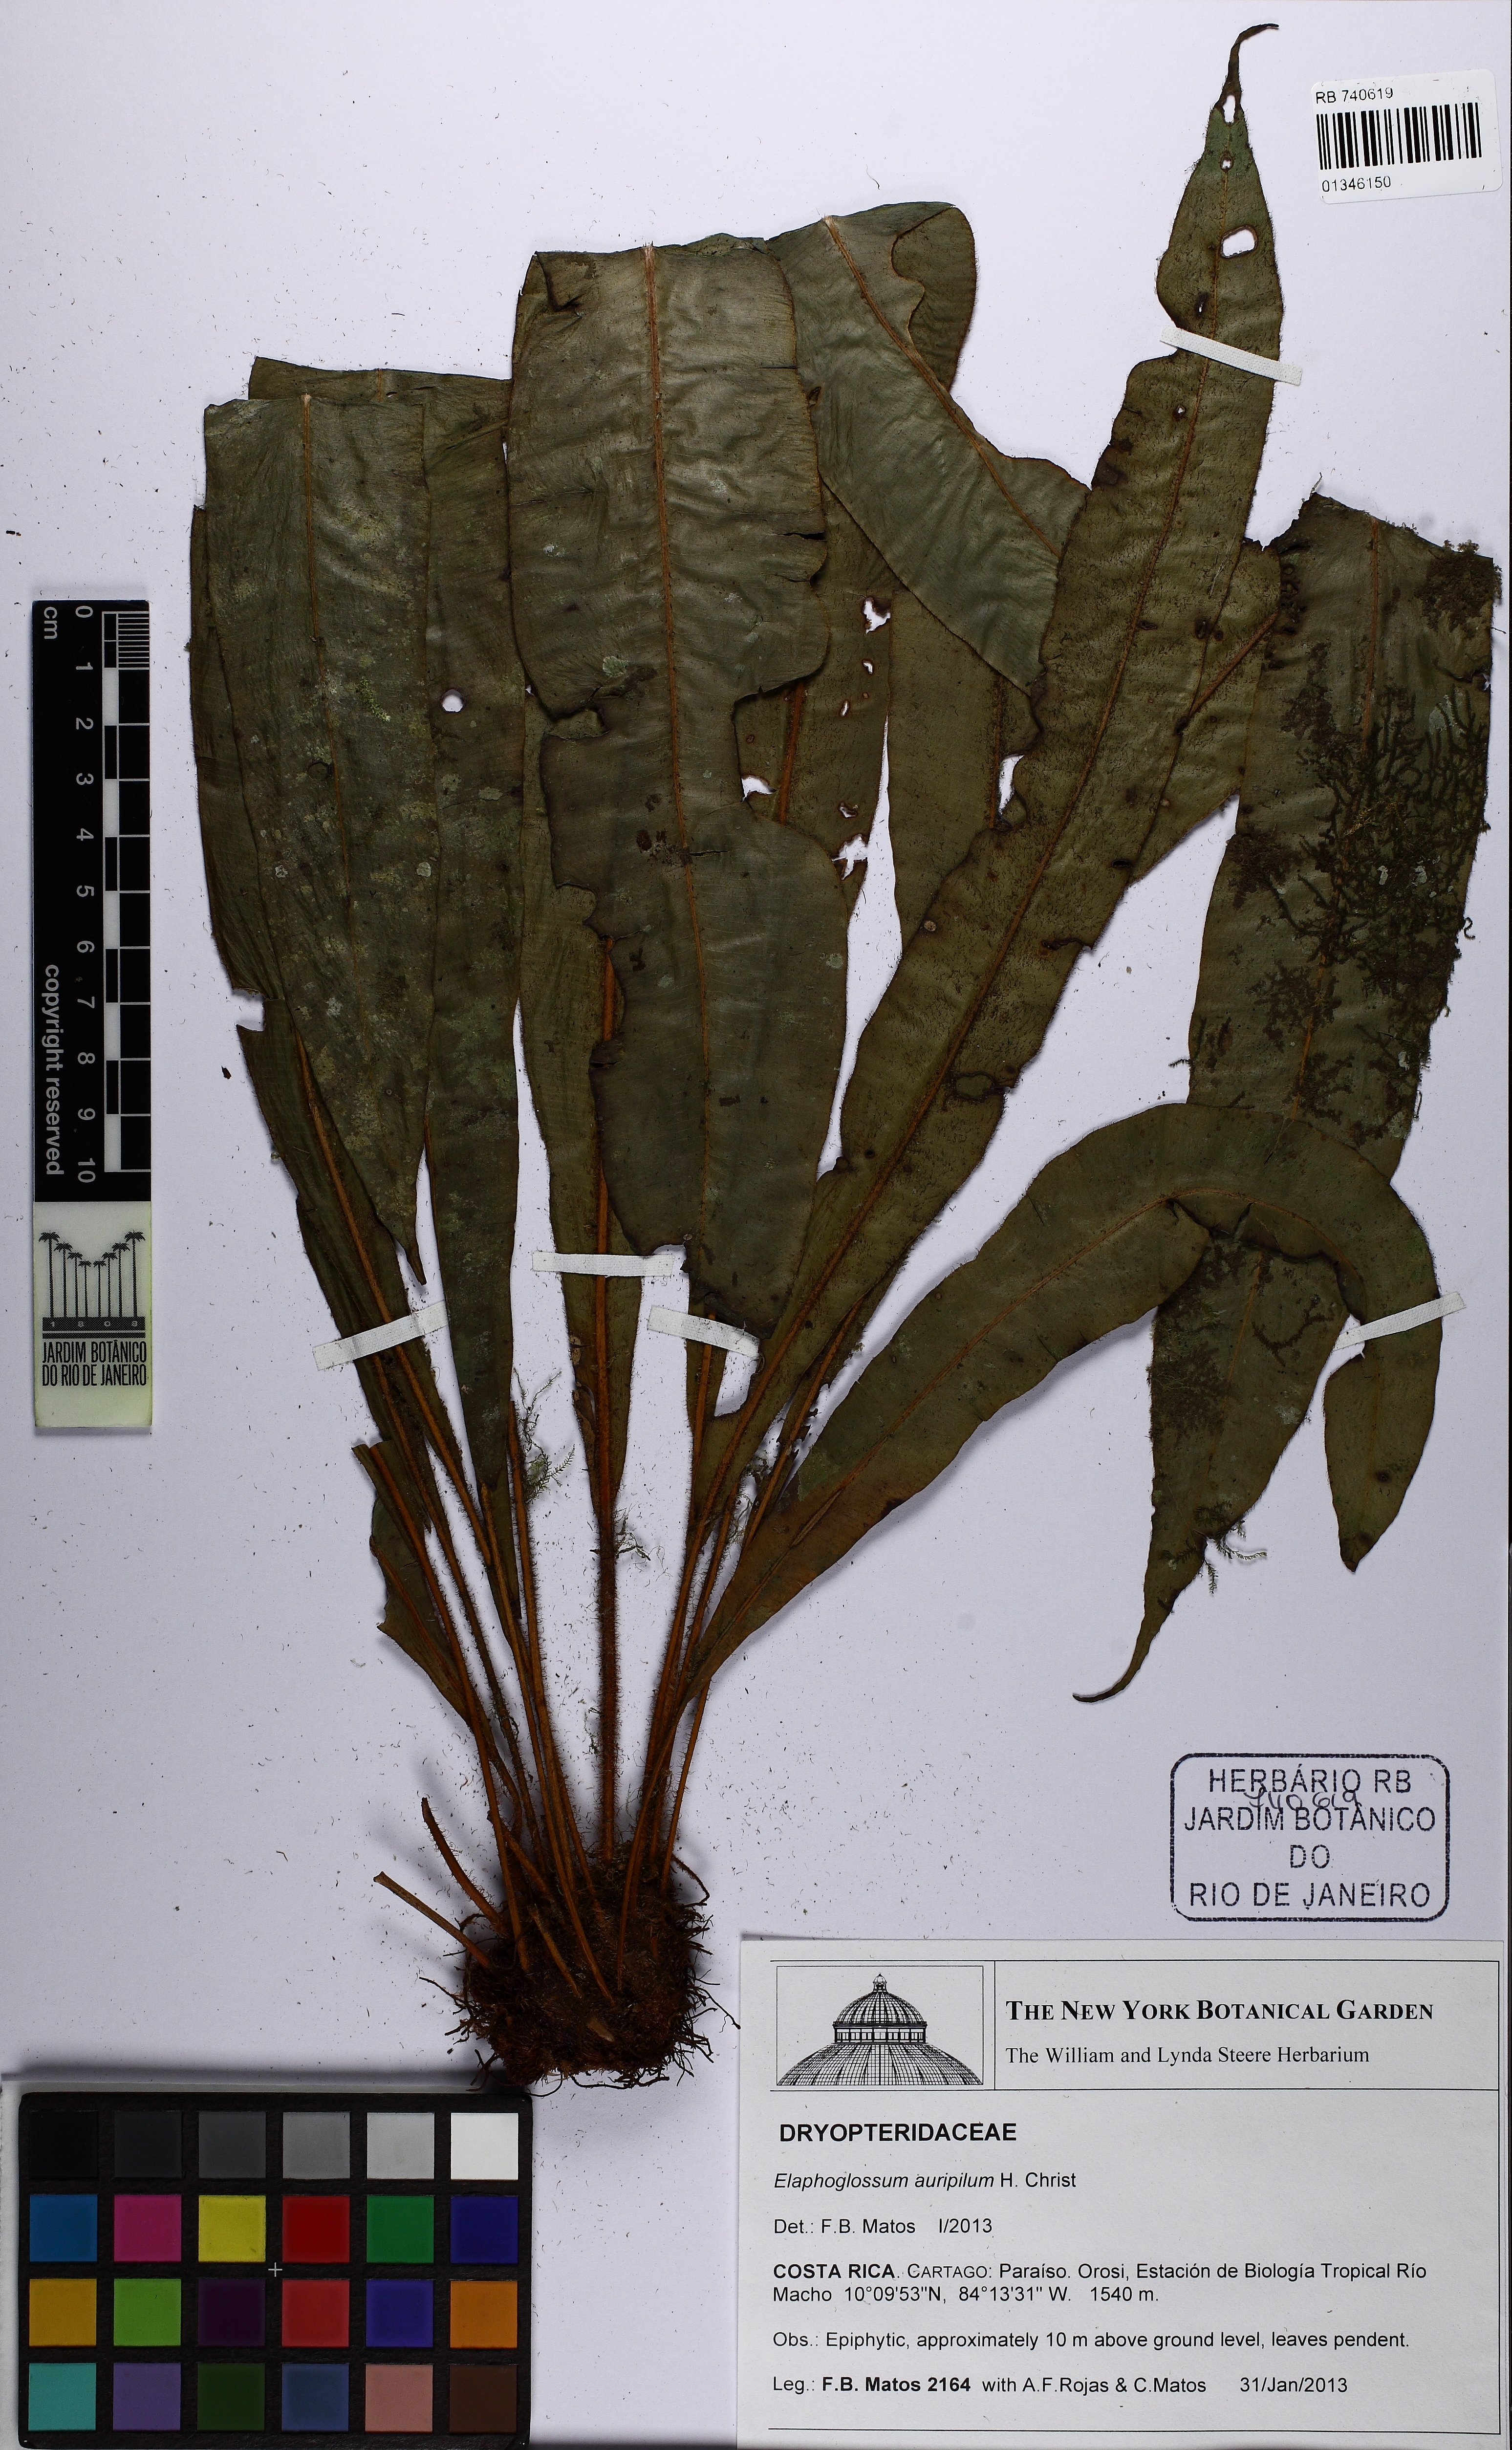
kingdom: Plantae
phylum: Tracheophyta
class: Polypodiopsida
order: Polypodiales
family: Dryopteridaceae
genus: Elaphoglossum
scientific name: Elaphoglossum auripilum
